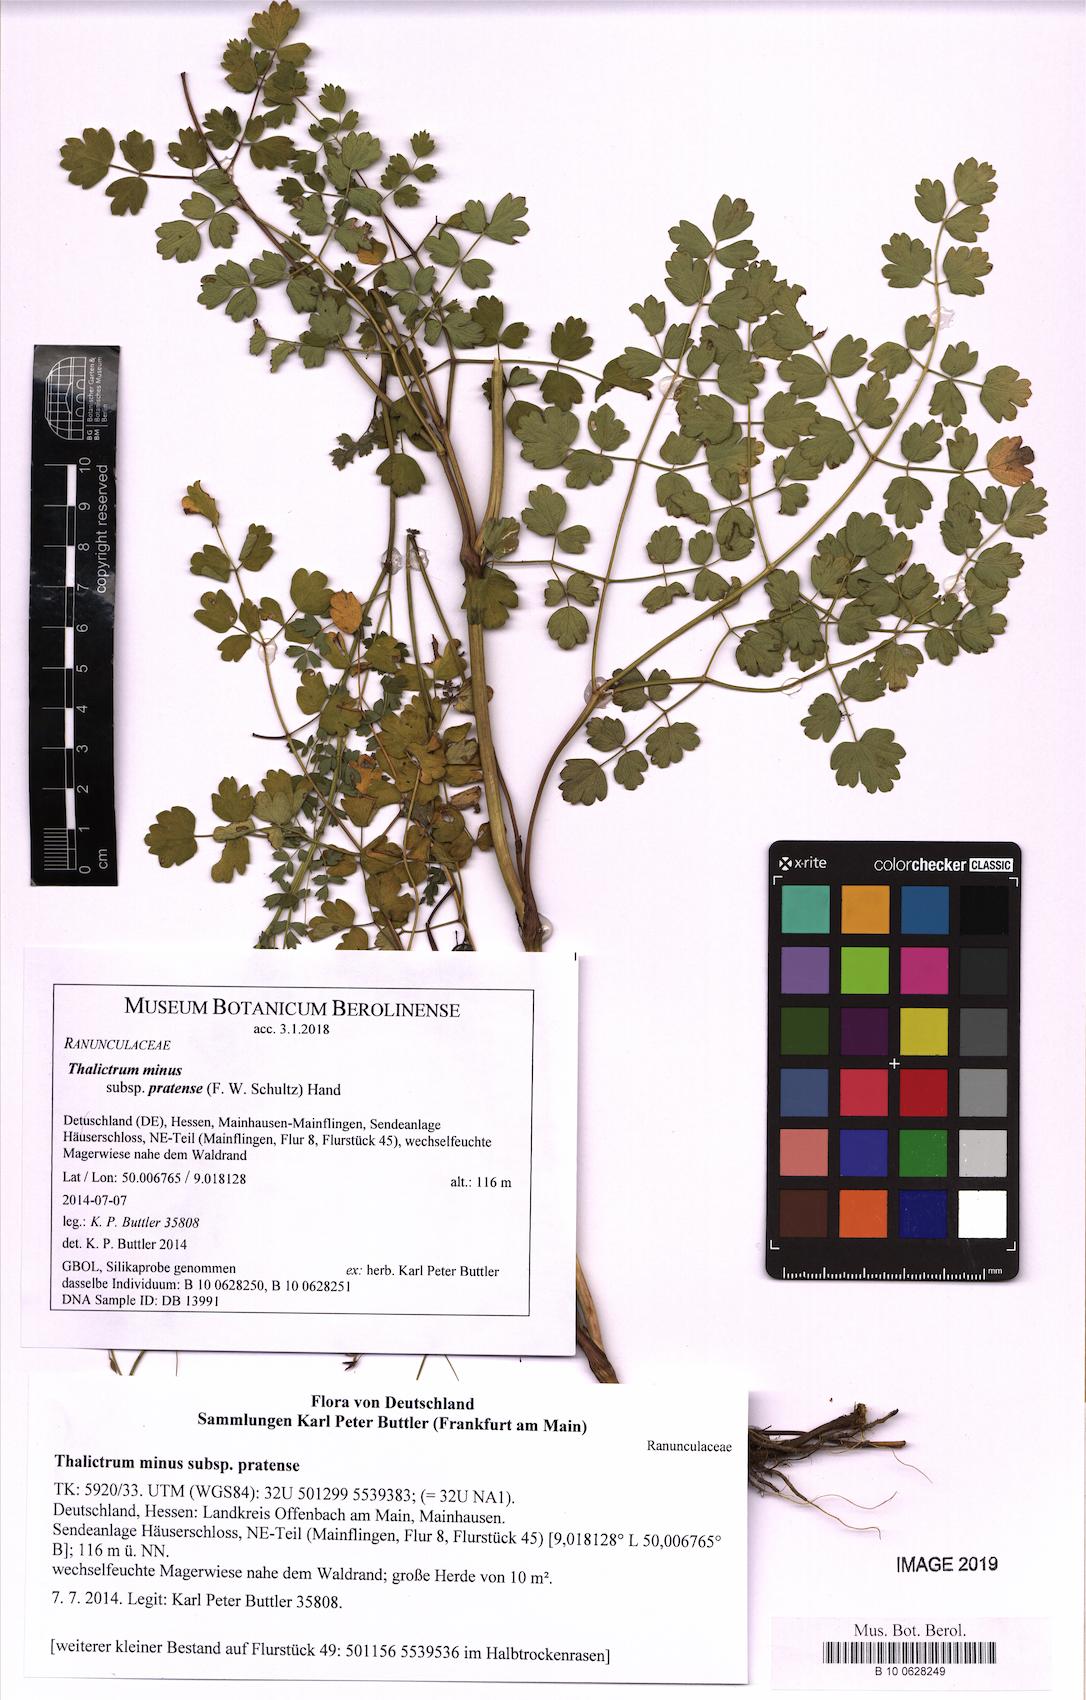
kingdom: Plantae
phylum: Tracheophyta
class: Magnoliopsida
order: Ranunculales
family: Ranunculaceae
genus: Thalictrum
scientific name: Thalictrum minus
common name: Lesser meadow-rue
